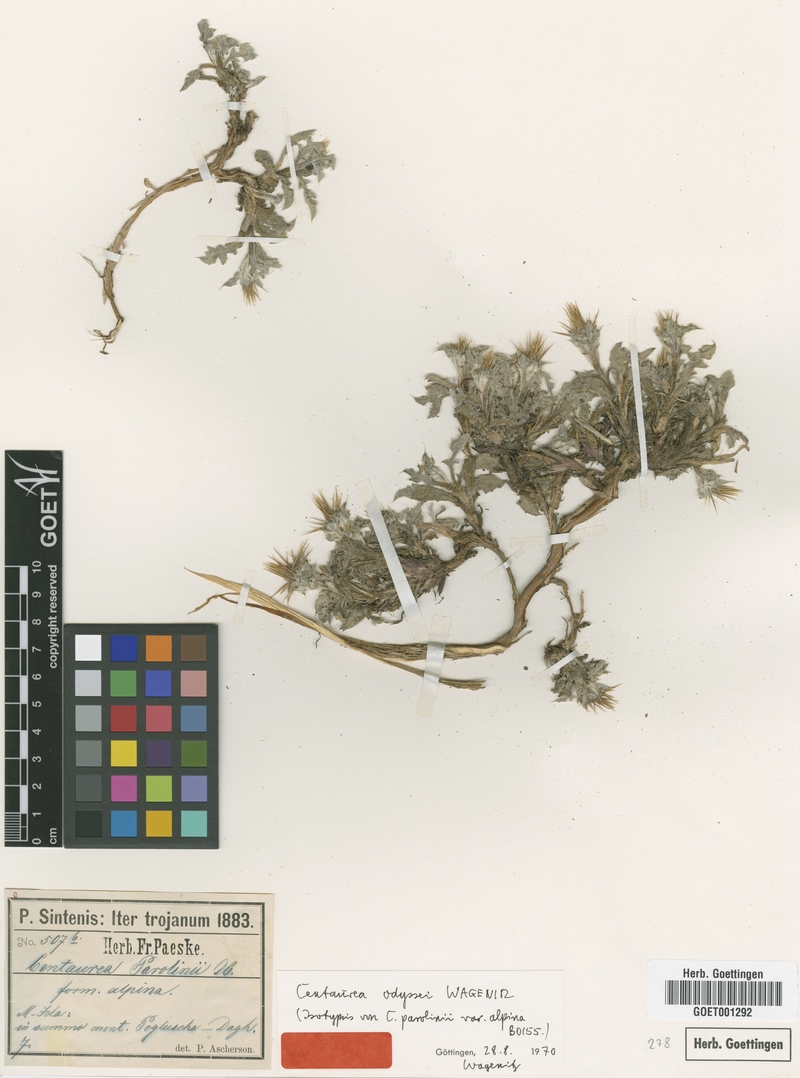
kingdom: Plantae
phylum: Tracheophyta
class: Magnoliopsida
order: Asterales
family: Asteraceae
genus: Centaurea
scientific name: Centaurea odyssei
